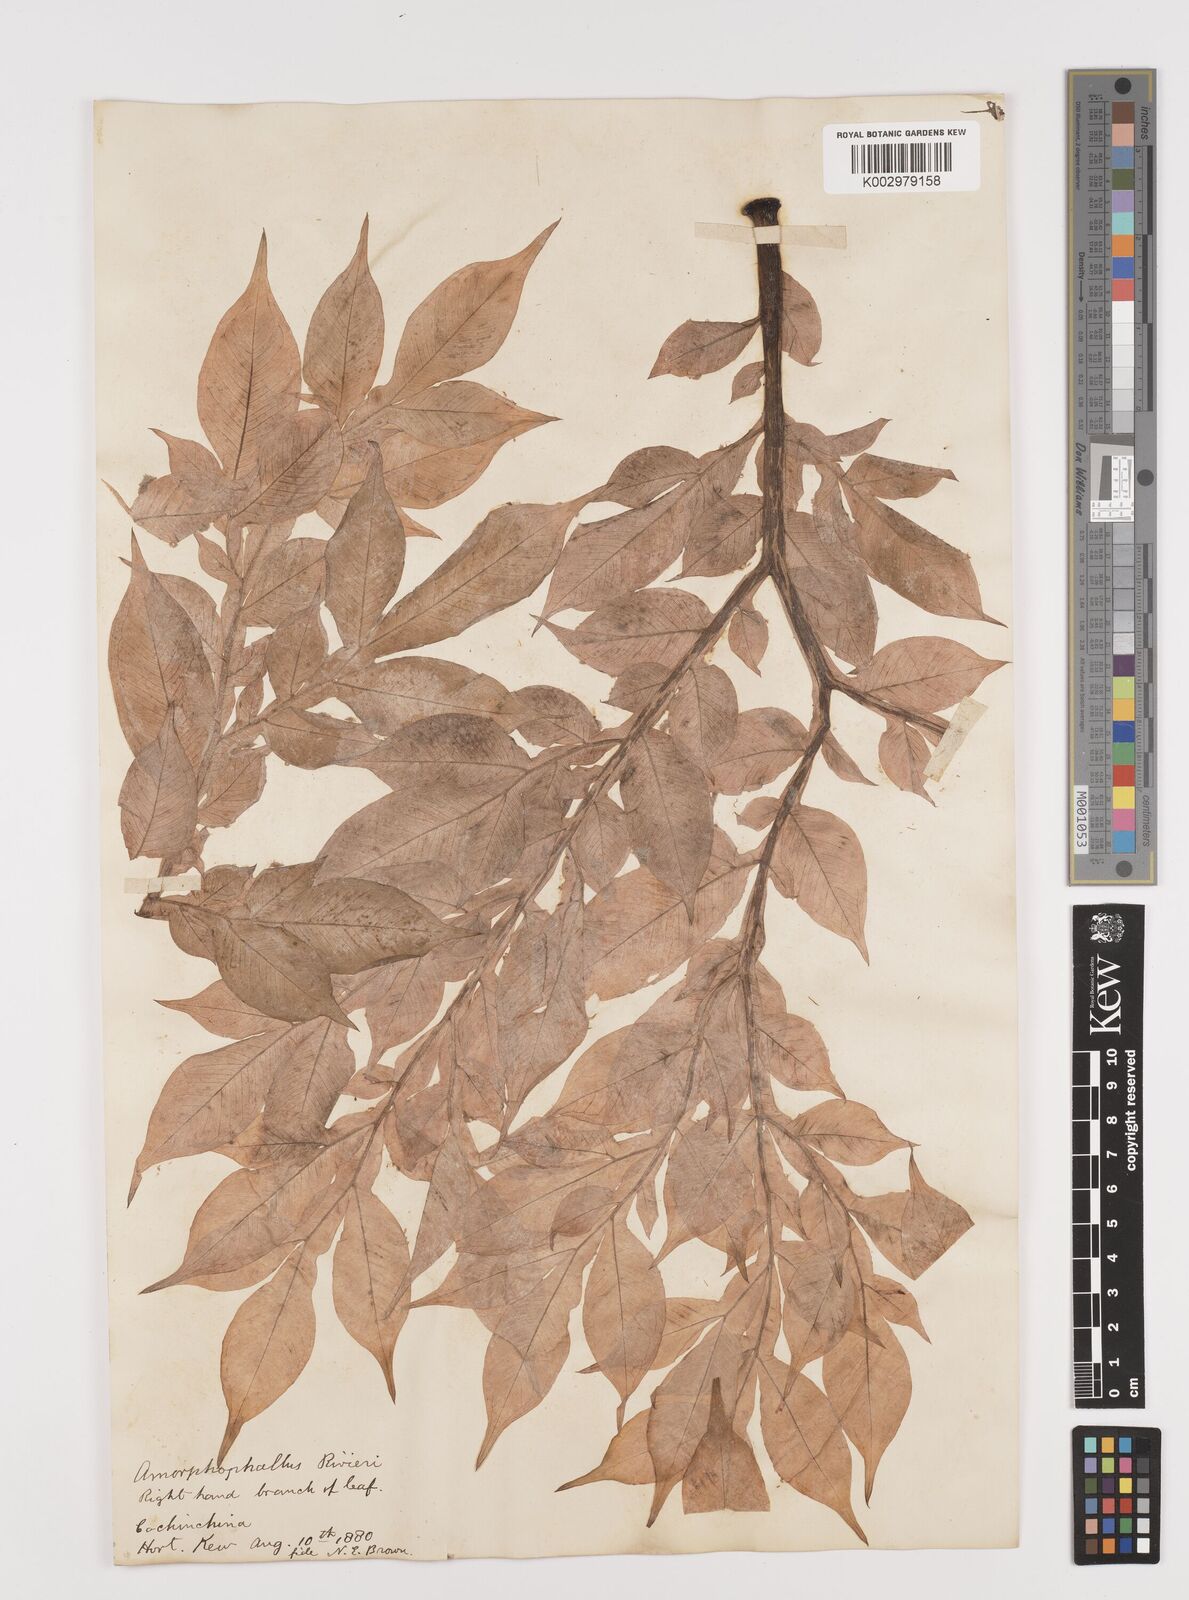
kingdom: Plantae
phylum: Tracheophyta
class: Liliopsida
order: Alismatales
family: Araceae
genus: Amorphophallus
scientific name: Amorphophallus konjac
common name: Umbrella arum
